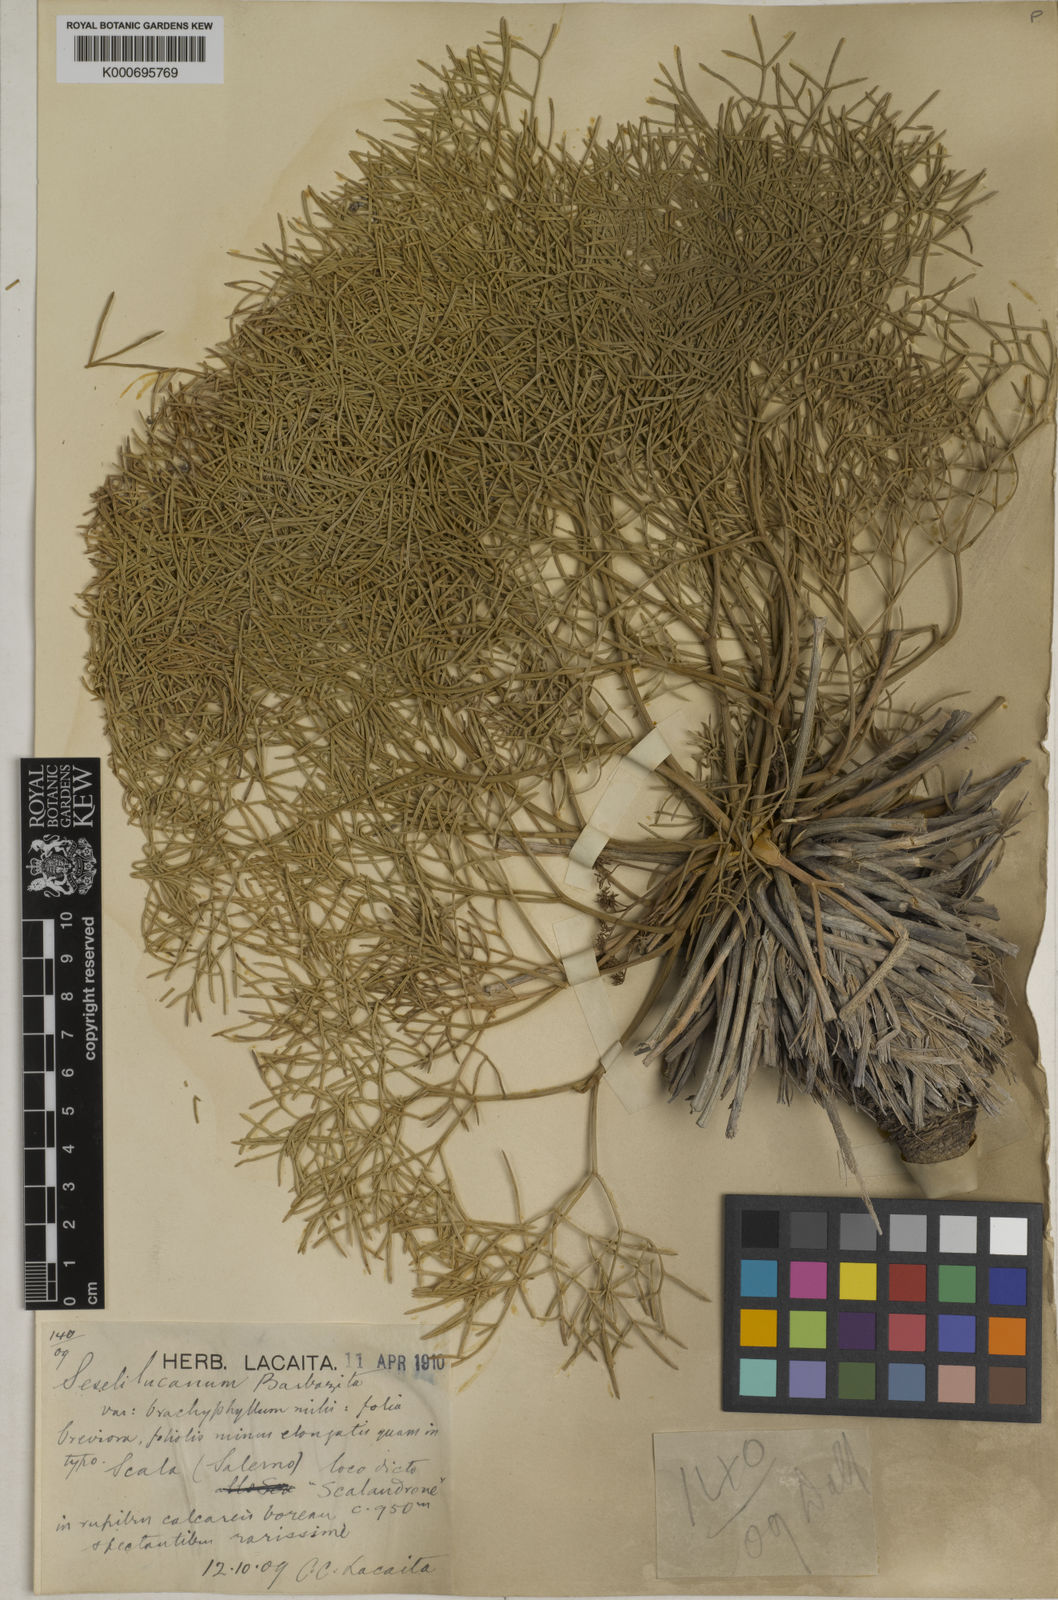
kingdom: Plantae
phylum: Tracheophyta
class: Magnoliopsida
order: Apiales
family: Apiaceae
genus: Athamanta
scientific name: Athamanta ramosissima
